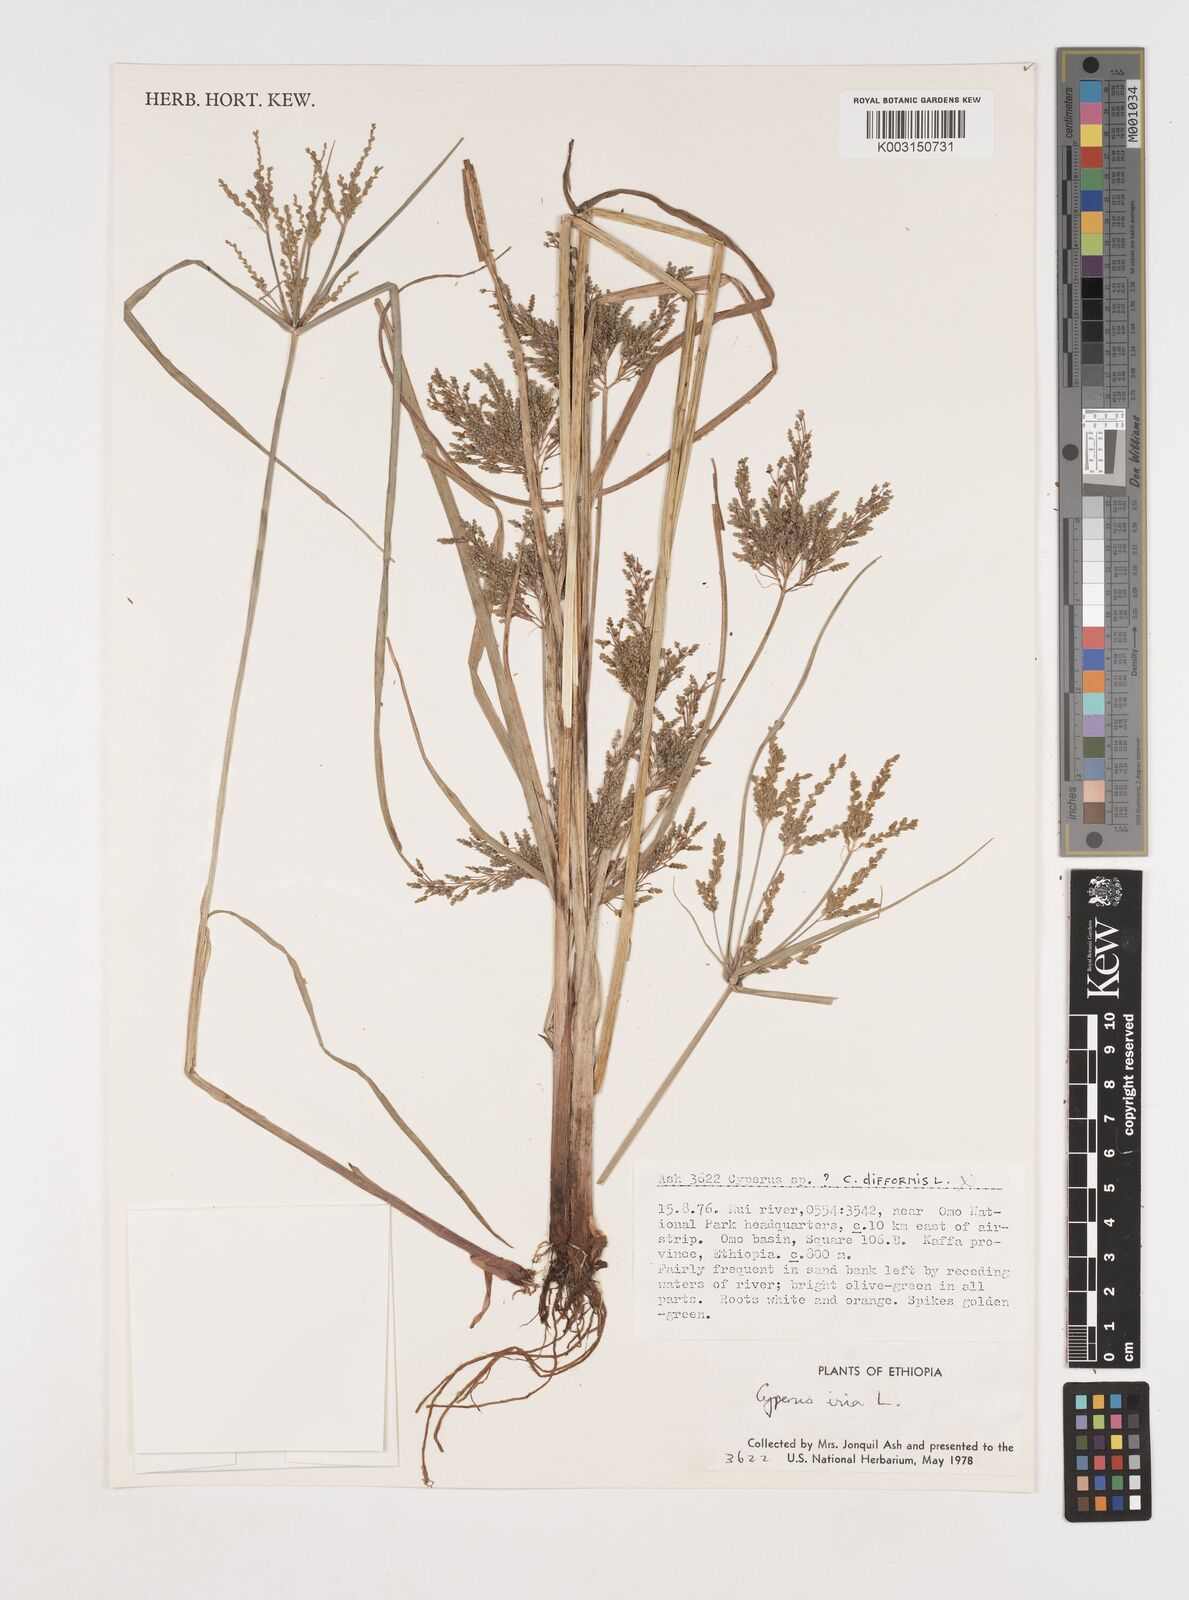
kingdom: Plantae
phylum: Tracheophyta
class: Liliopsida
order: Poales
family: Cyperaceae
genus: Cyperus
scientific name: Cyperus iria
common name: Ricefield flatsedge
